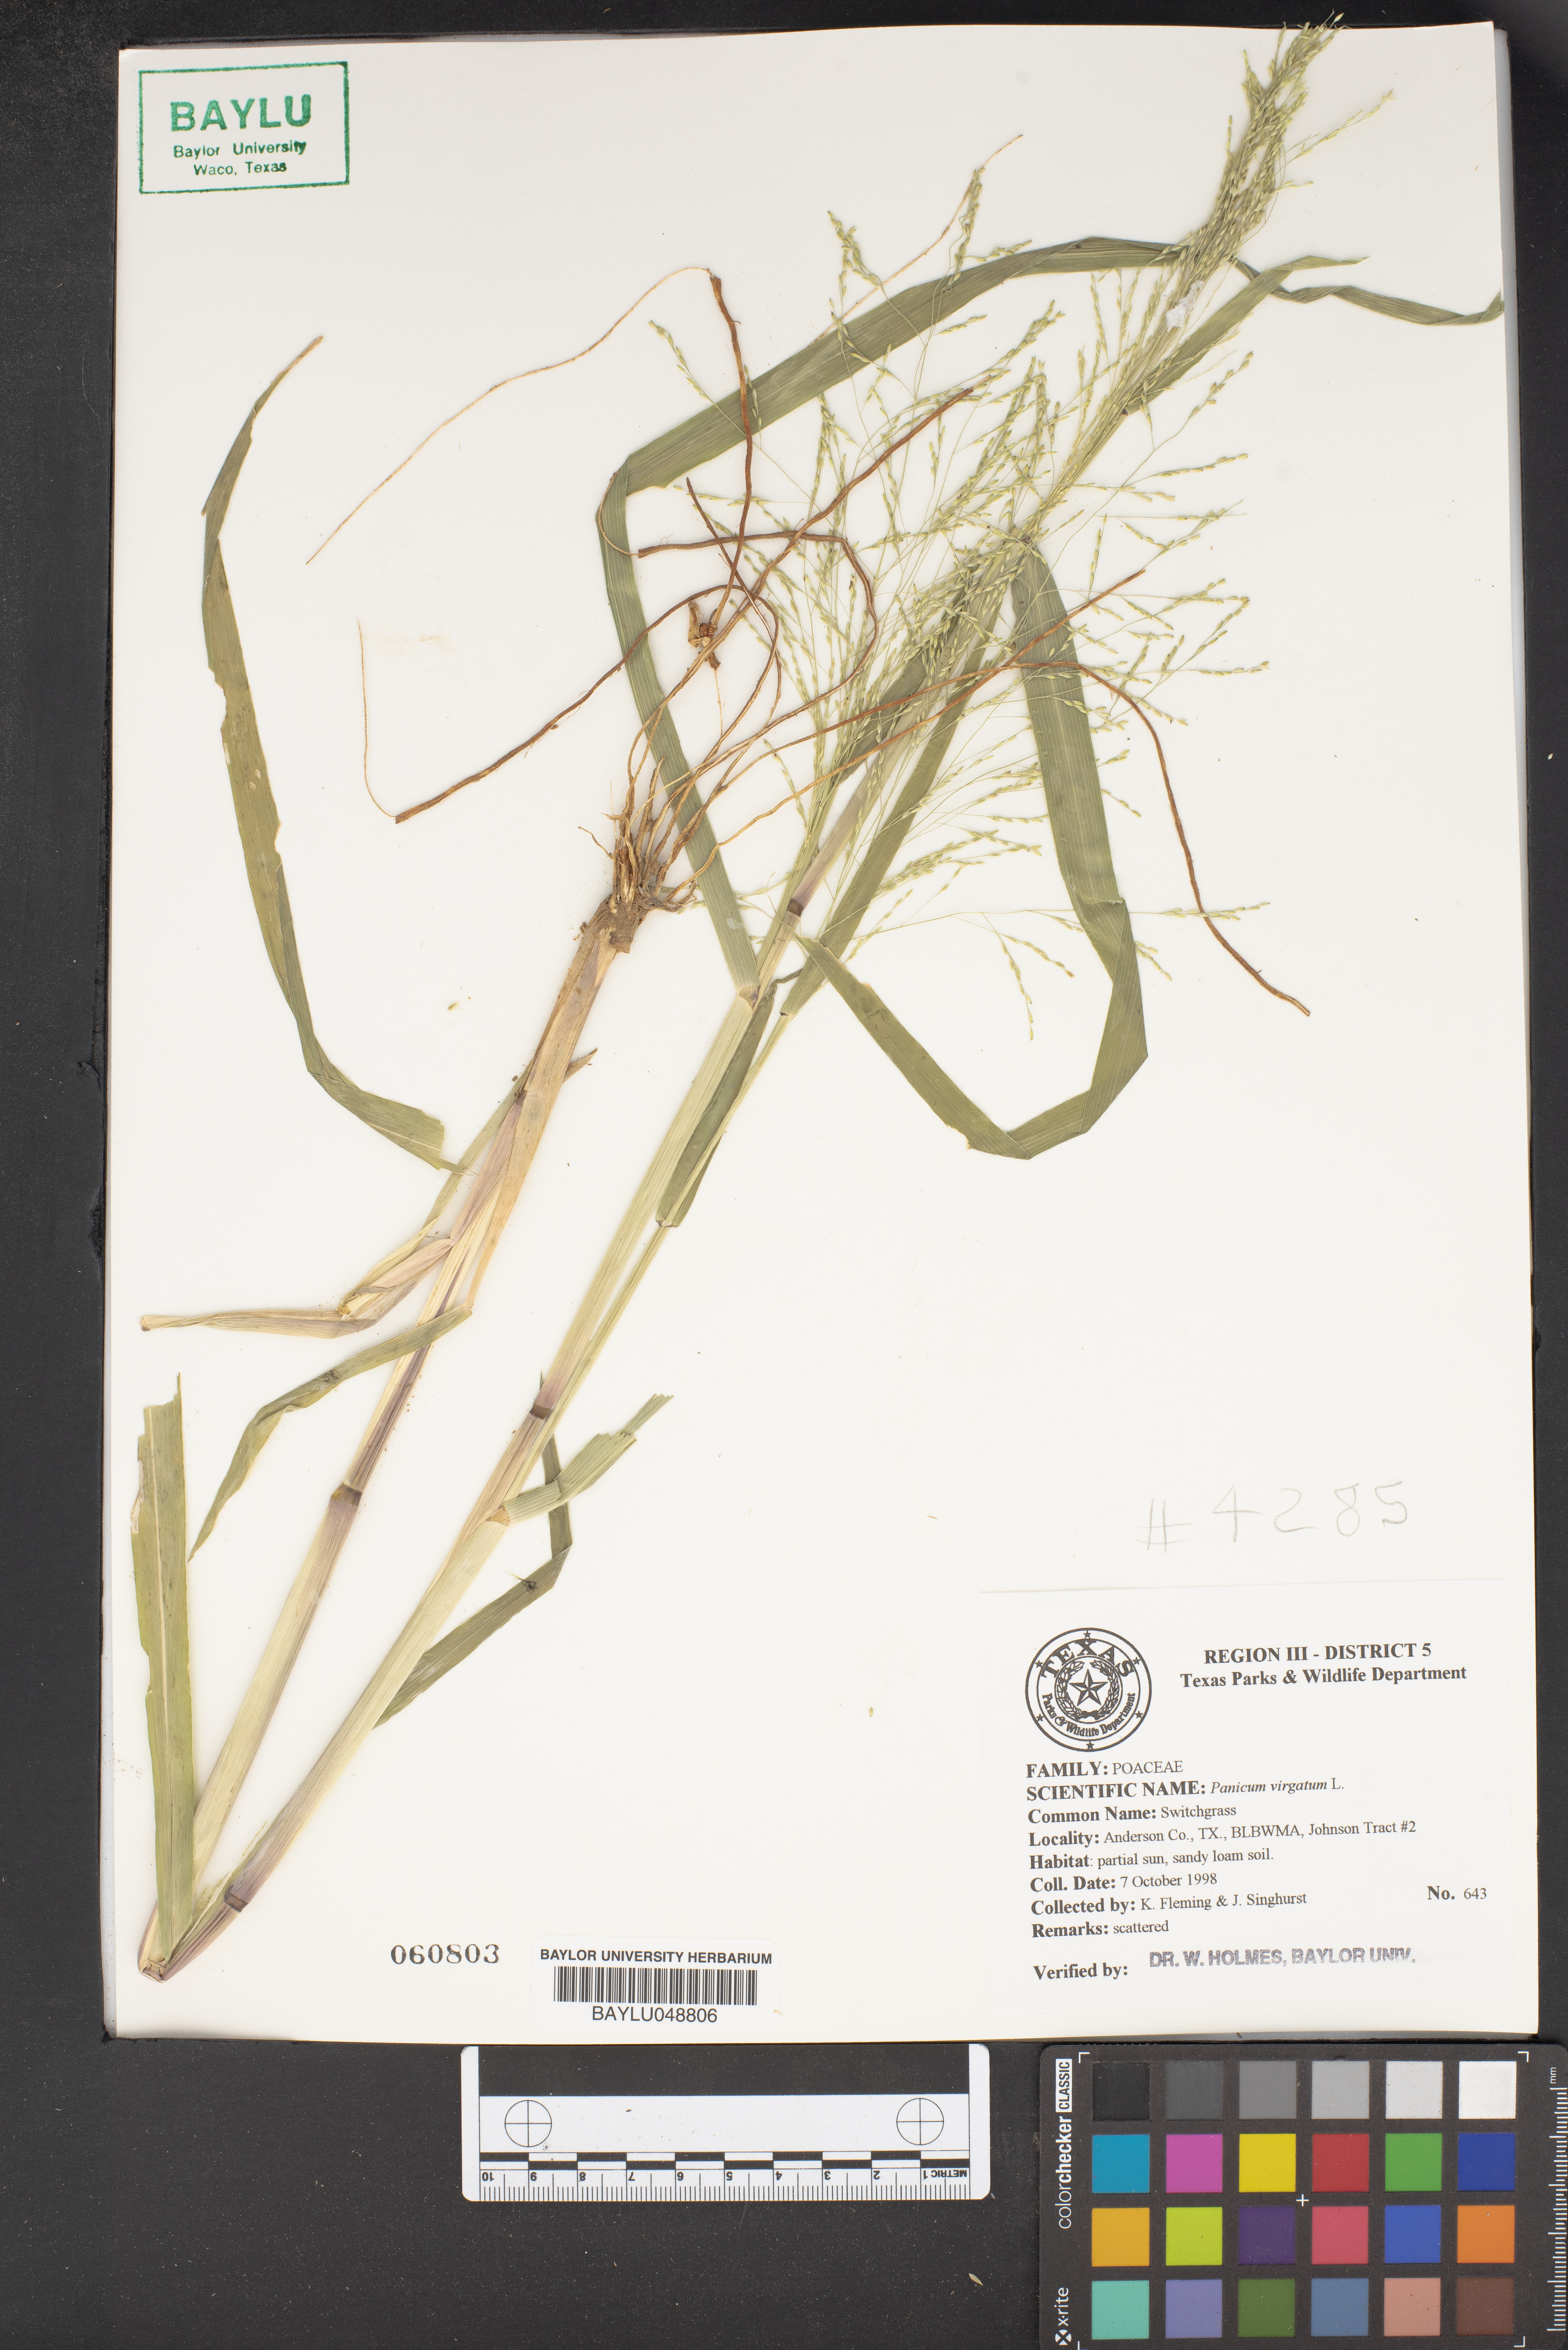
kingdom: Plantae
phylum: Tracheophyta
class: Liliopsida
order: Poales
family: Poaceae
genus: Panicum
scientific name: Panicum virgatum
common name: Switchgrass
